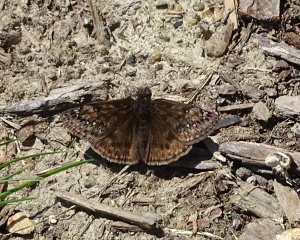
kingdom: Animalia
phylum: Arthropoda
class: Insecta
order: Lepidoptera
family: Hesperiidae
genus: Gesta
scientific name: Gesta
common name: Juvenal's Duskywing
